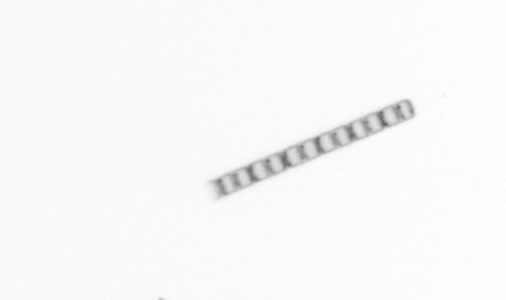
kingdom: Chromista
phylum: Ochrophyta
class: Bacillariophyceae
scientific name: Bacillariophyceae
